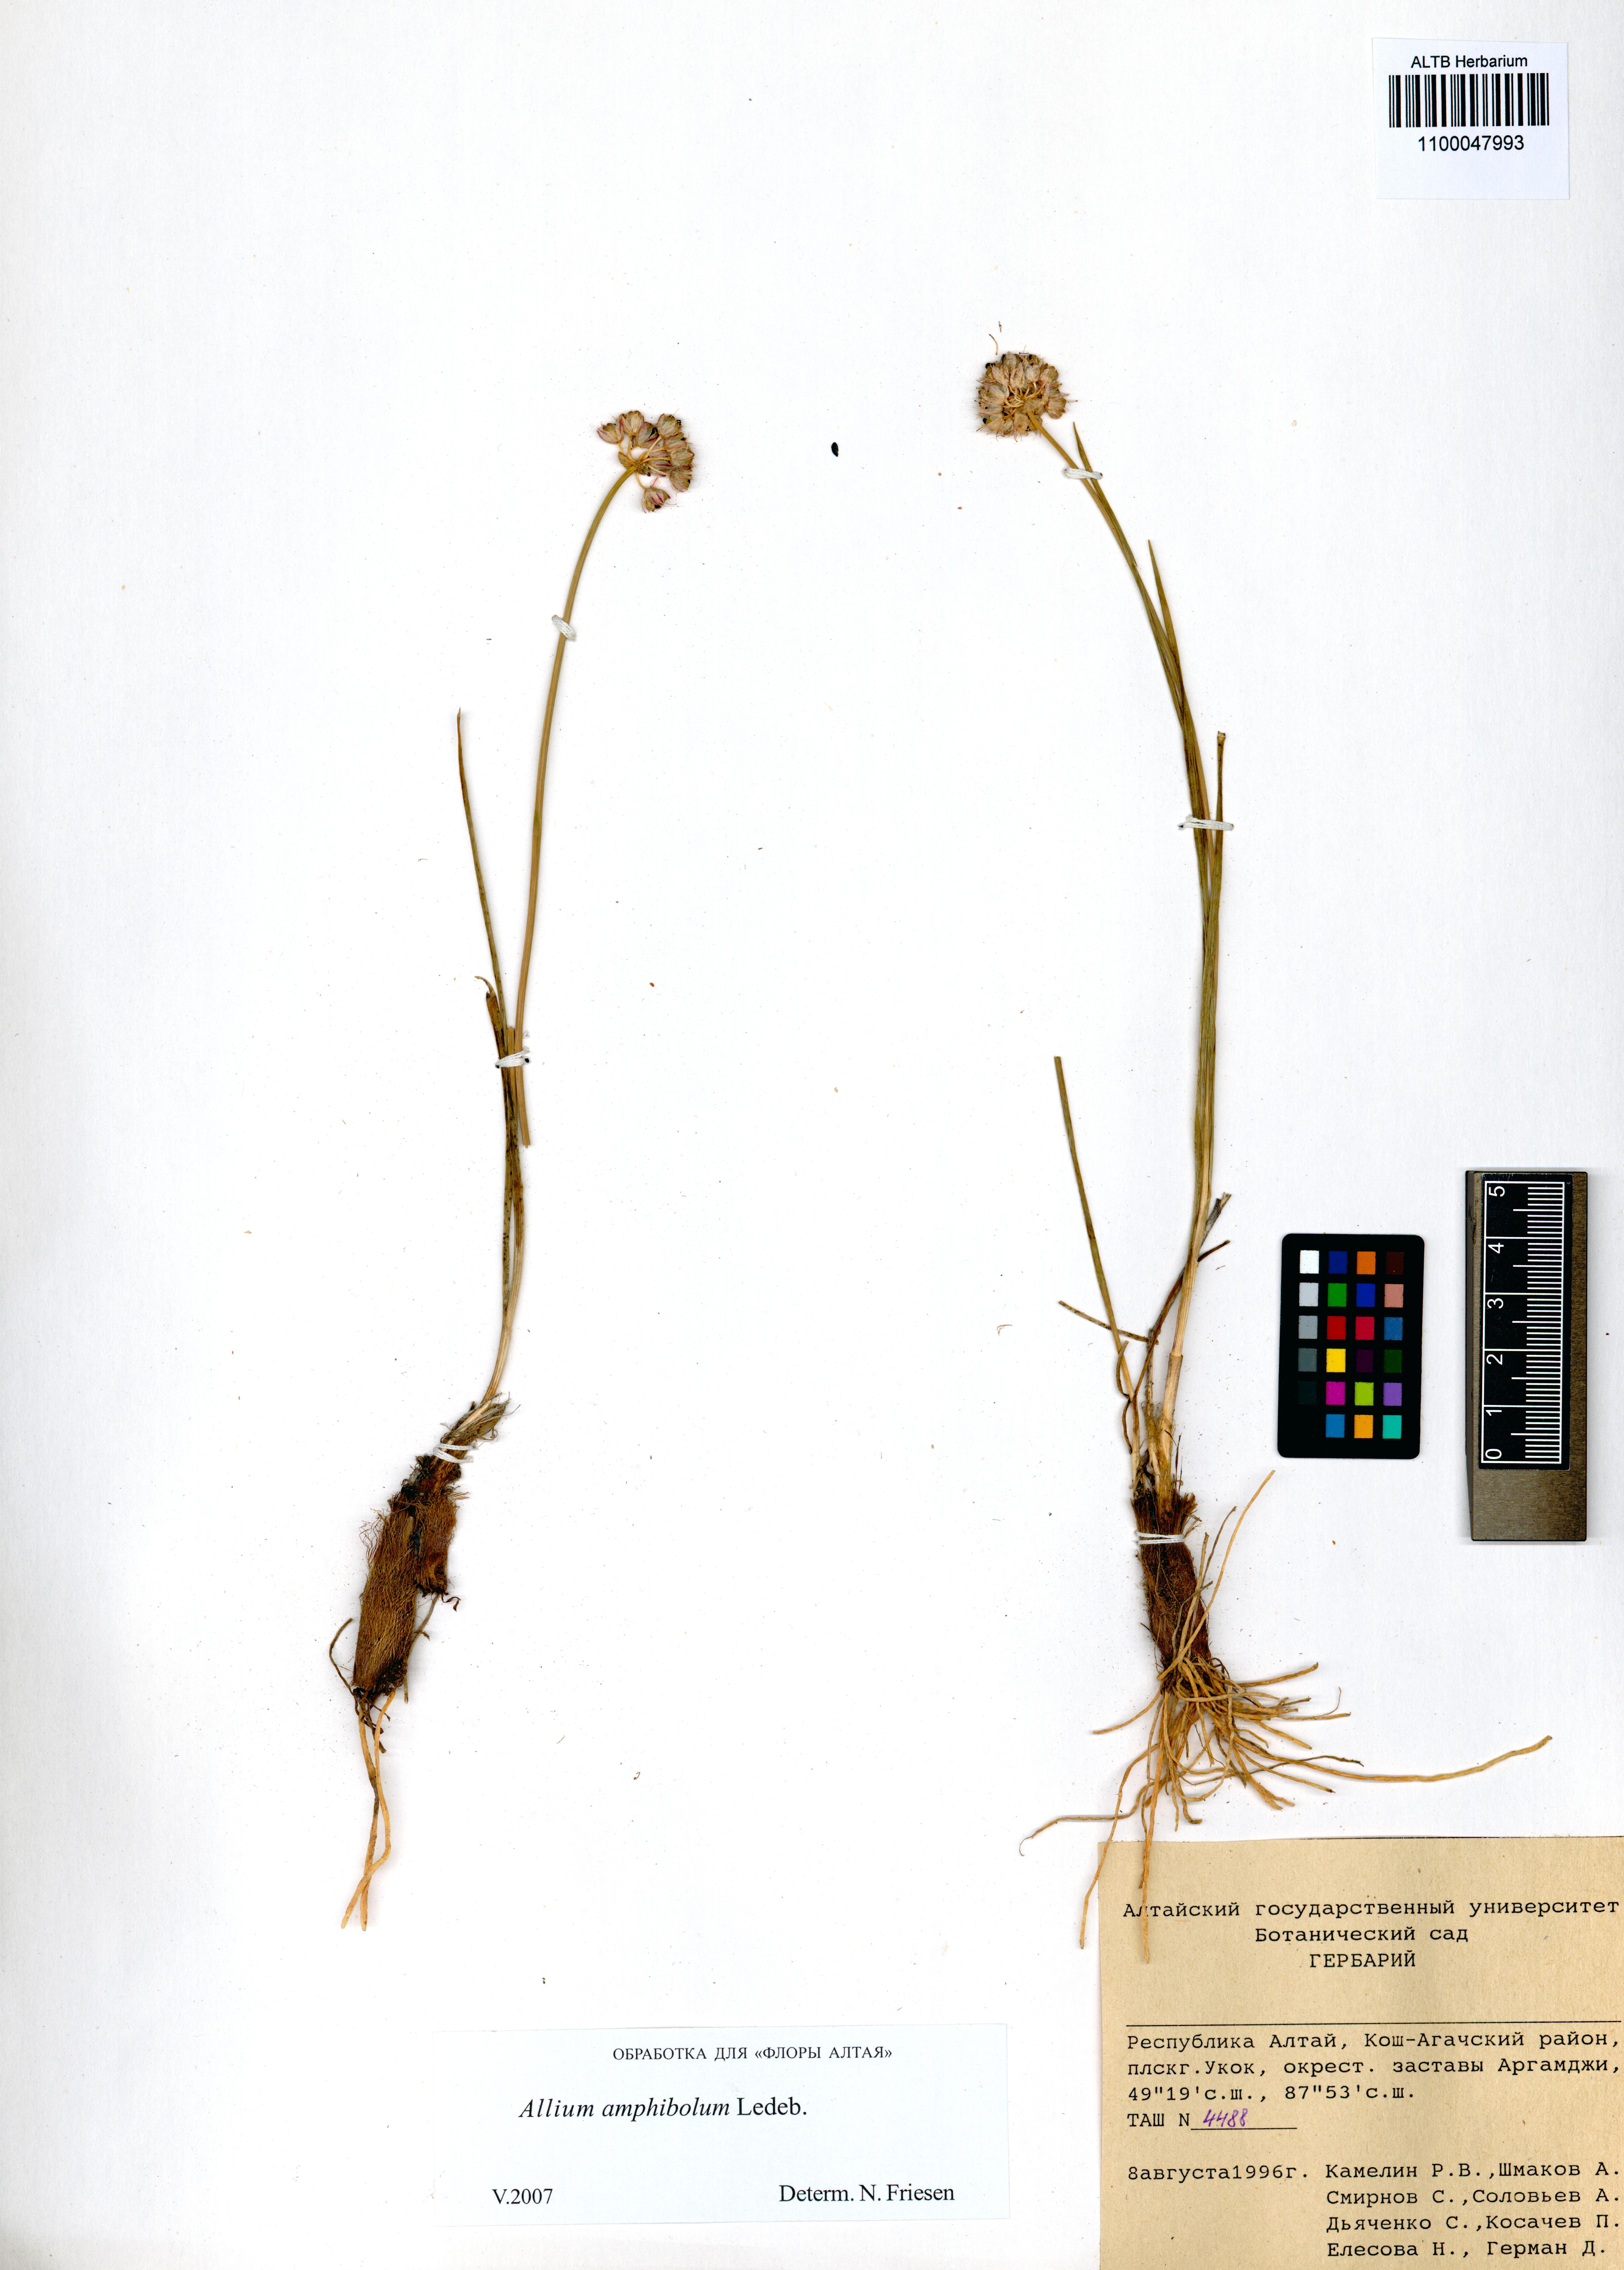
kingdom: Plantae
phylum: Tracheophyta
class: Liliopsida
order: Asparagales
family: Amaryllidaceae
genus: Allium
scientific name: Allium amphibolum
